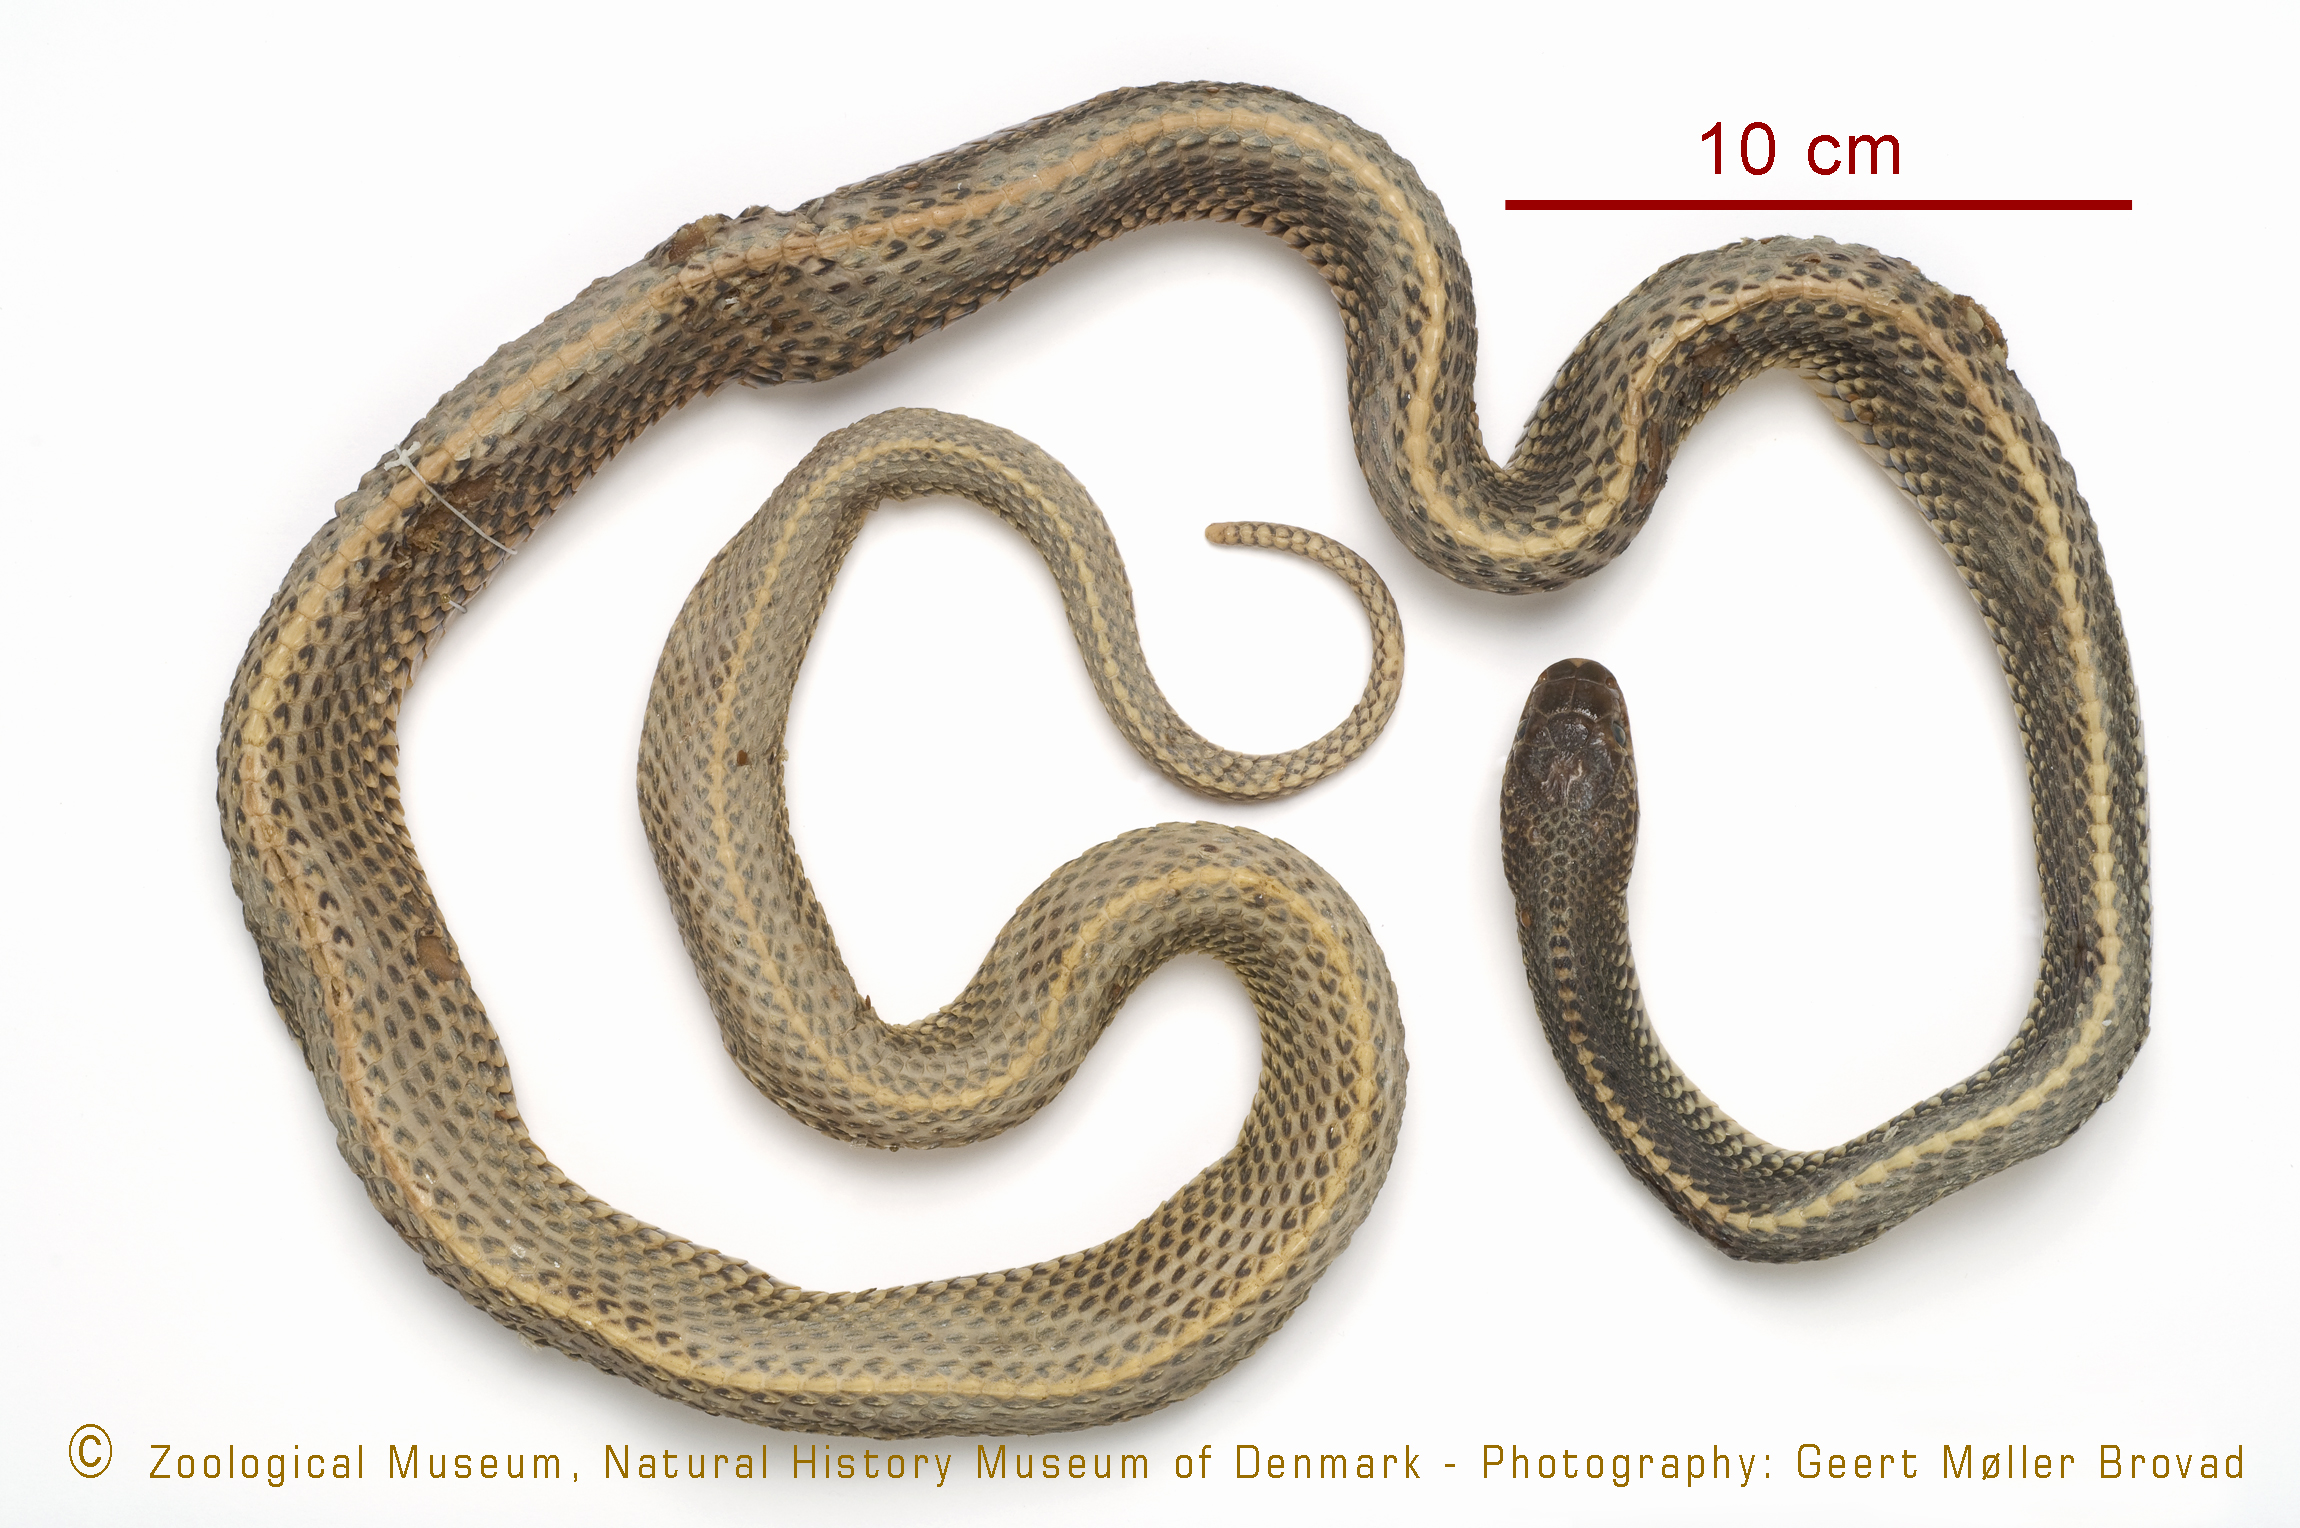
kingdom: Animalia
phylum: Chordata
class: Squamata
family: Lamprophiidae
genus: Limaformosa
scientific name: Limaformosa capensis
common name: Cape file snake
